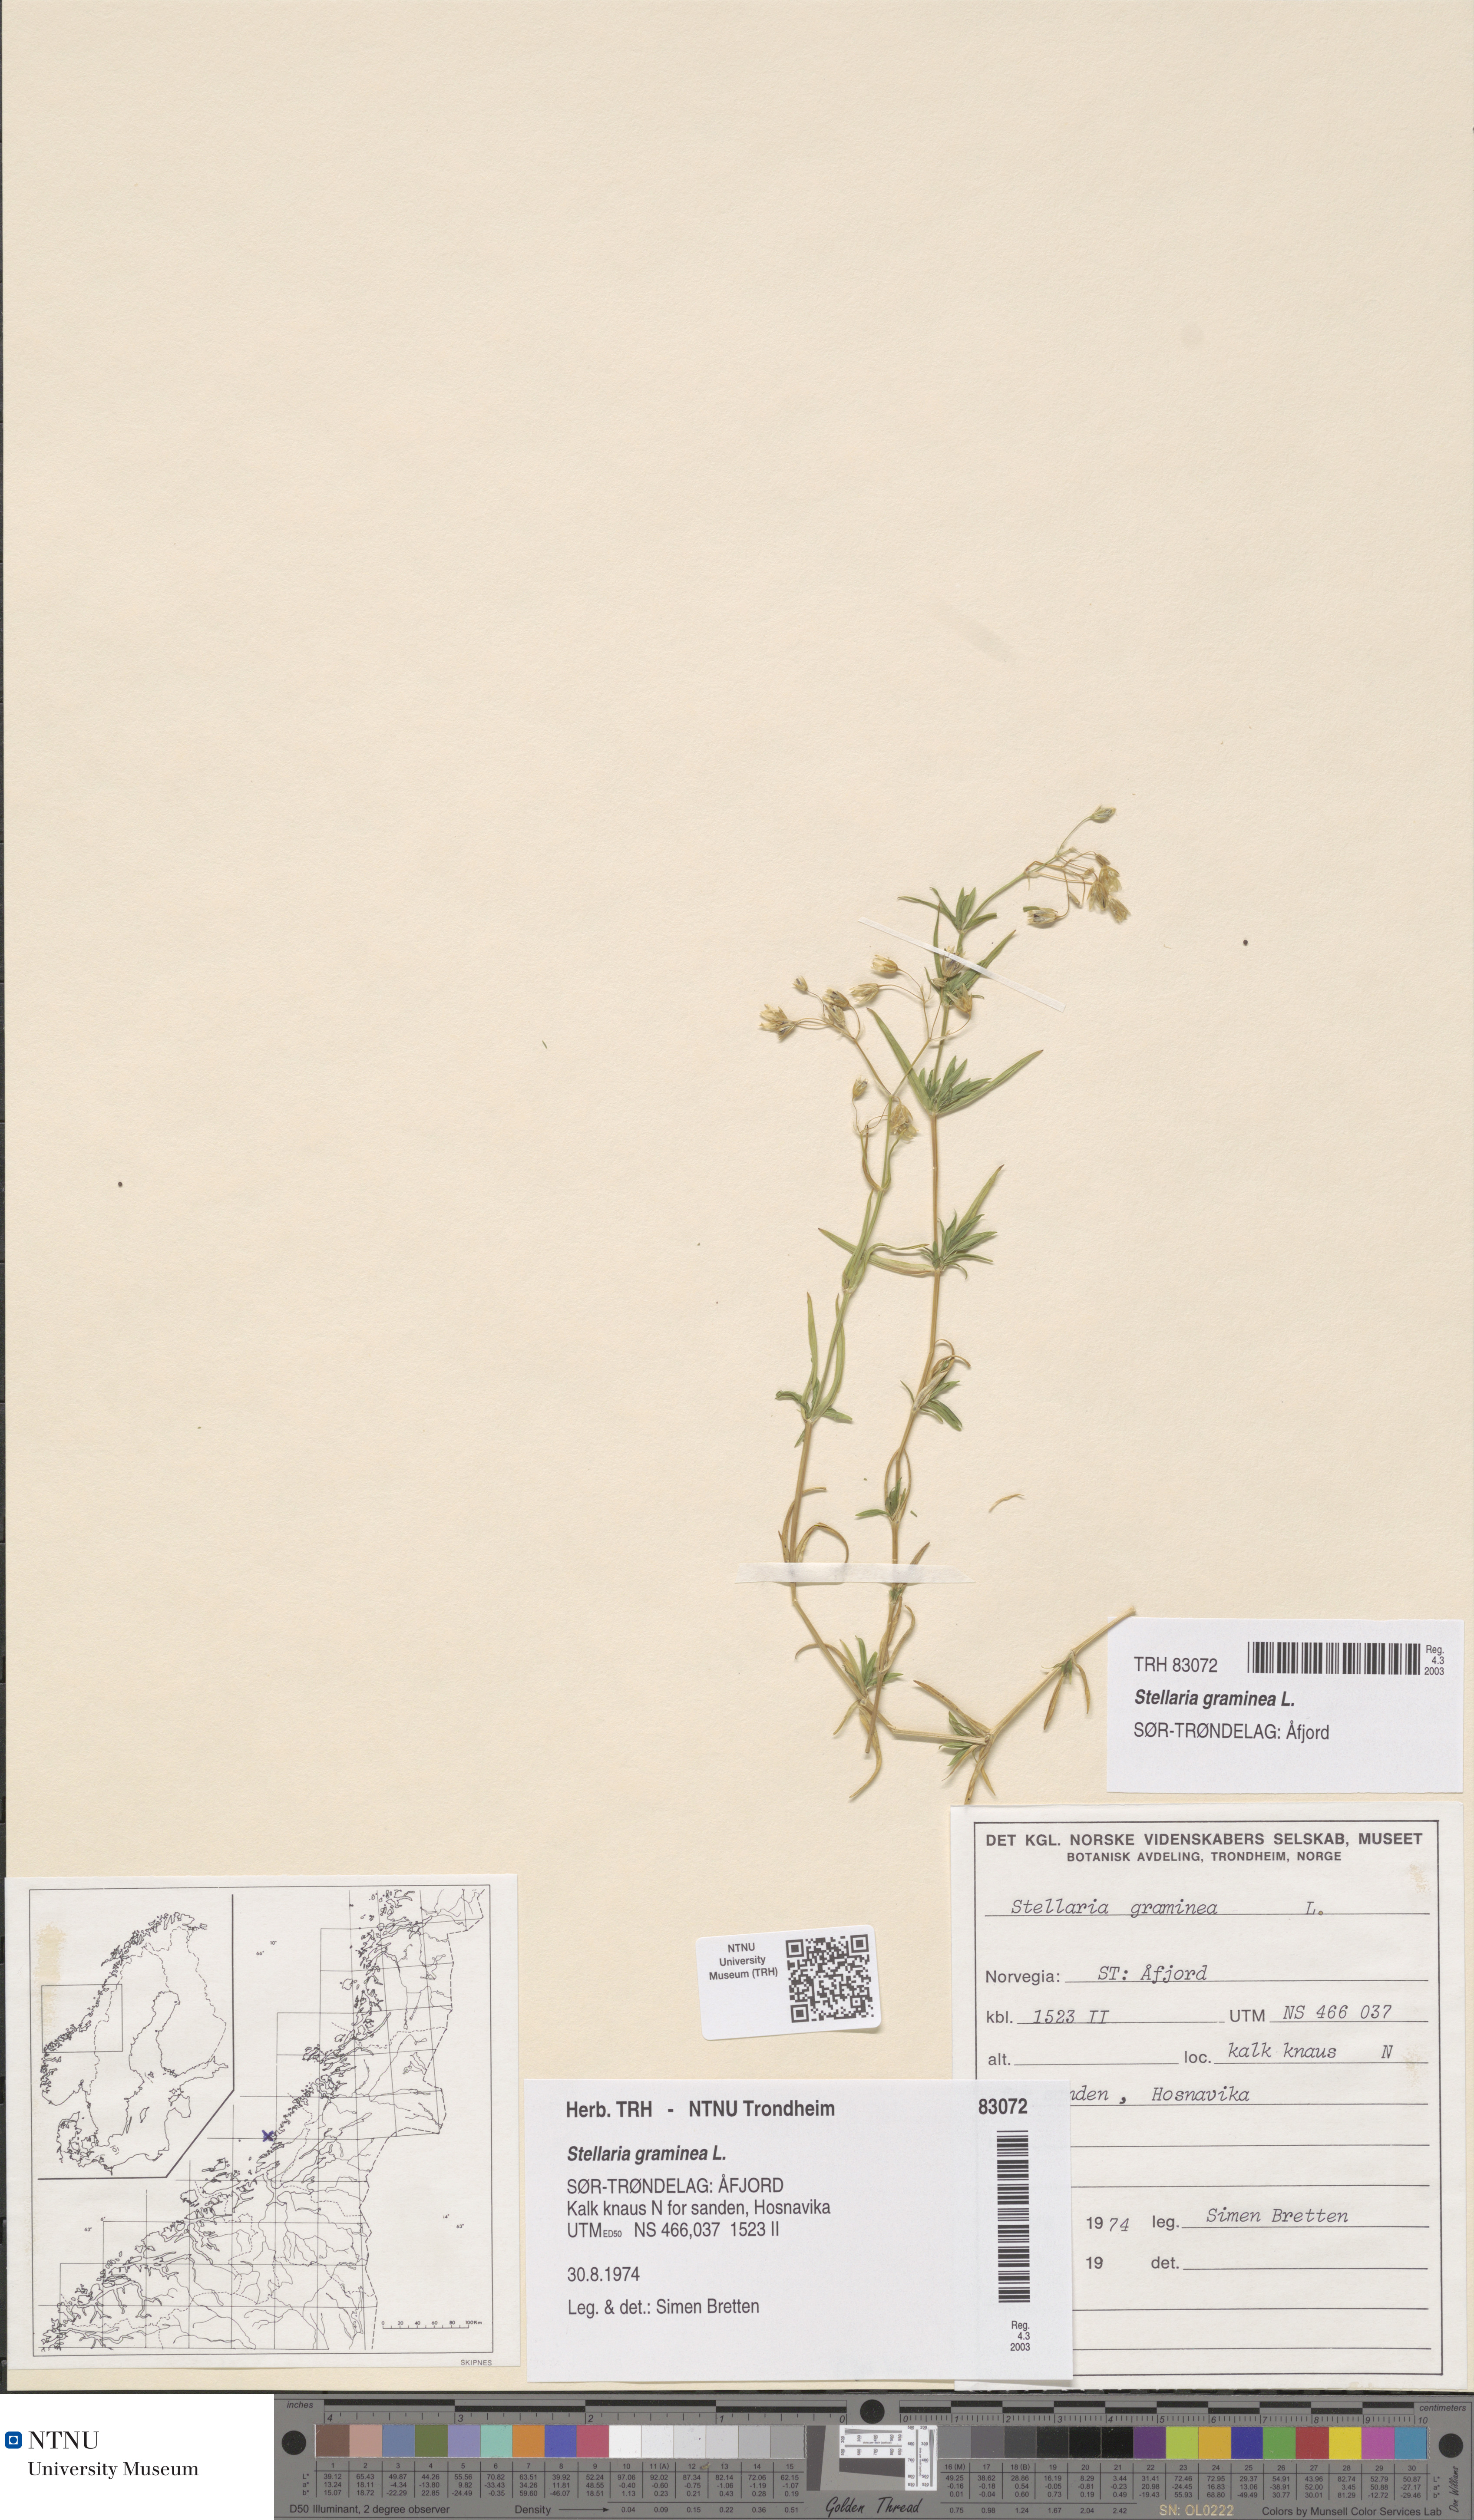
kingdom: Plantae
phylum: Tracheophyta
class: Magnoliopsida
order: Caryophyllales
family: Caryophyllaceae
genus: Stellaria
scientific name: Stellaria graminea
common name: Grass-like starwort
